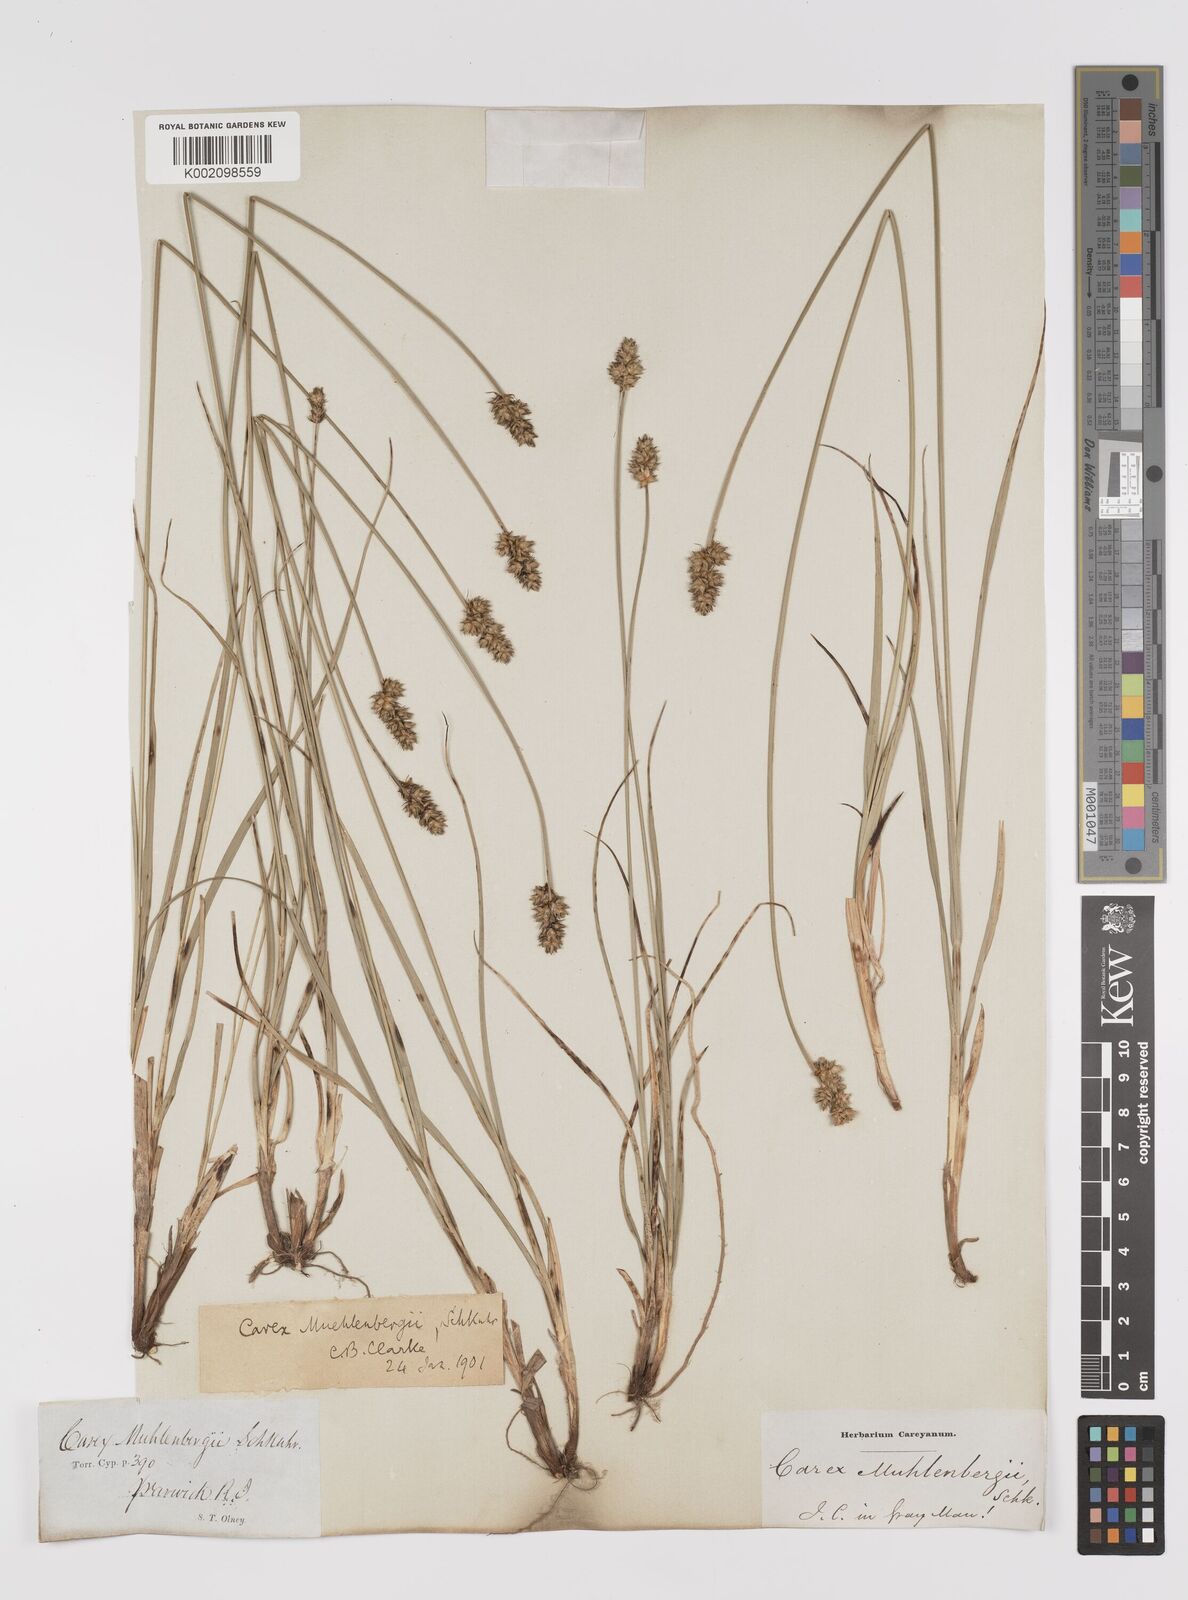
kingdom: Plantae
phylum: Tracheophyta
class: Liliopsida
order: Poales
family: Cyperaceae
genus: Carex
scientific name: Carex vulpinoidea
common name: American fox-sedge
